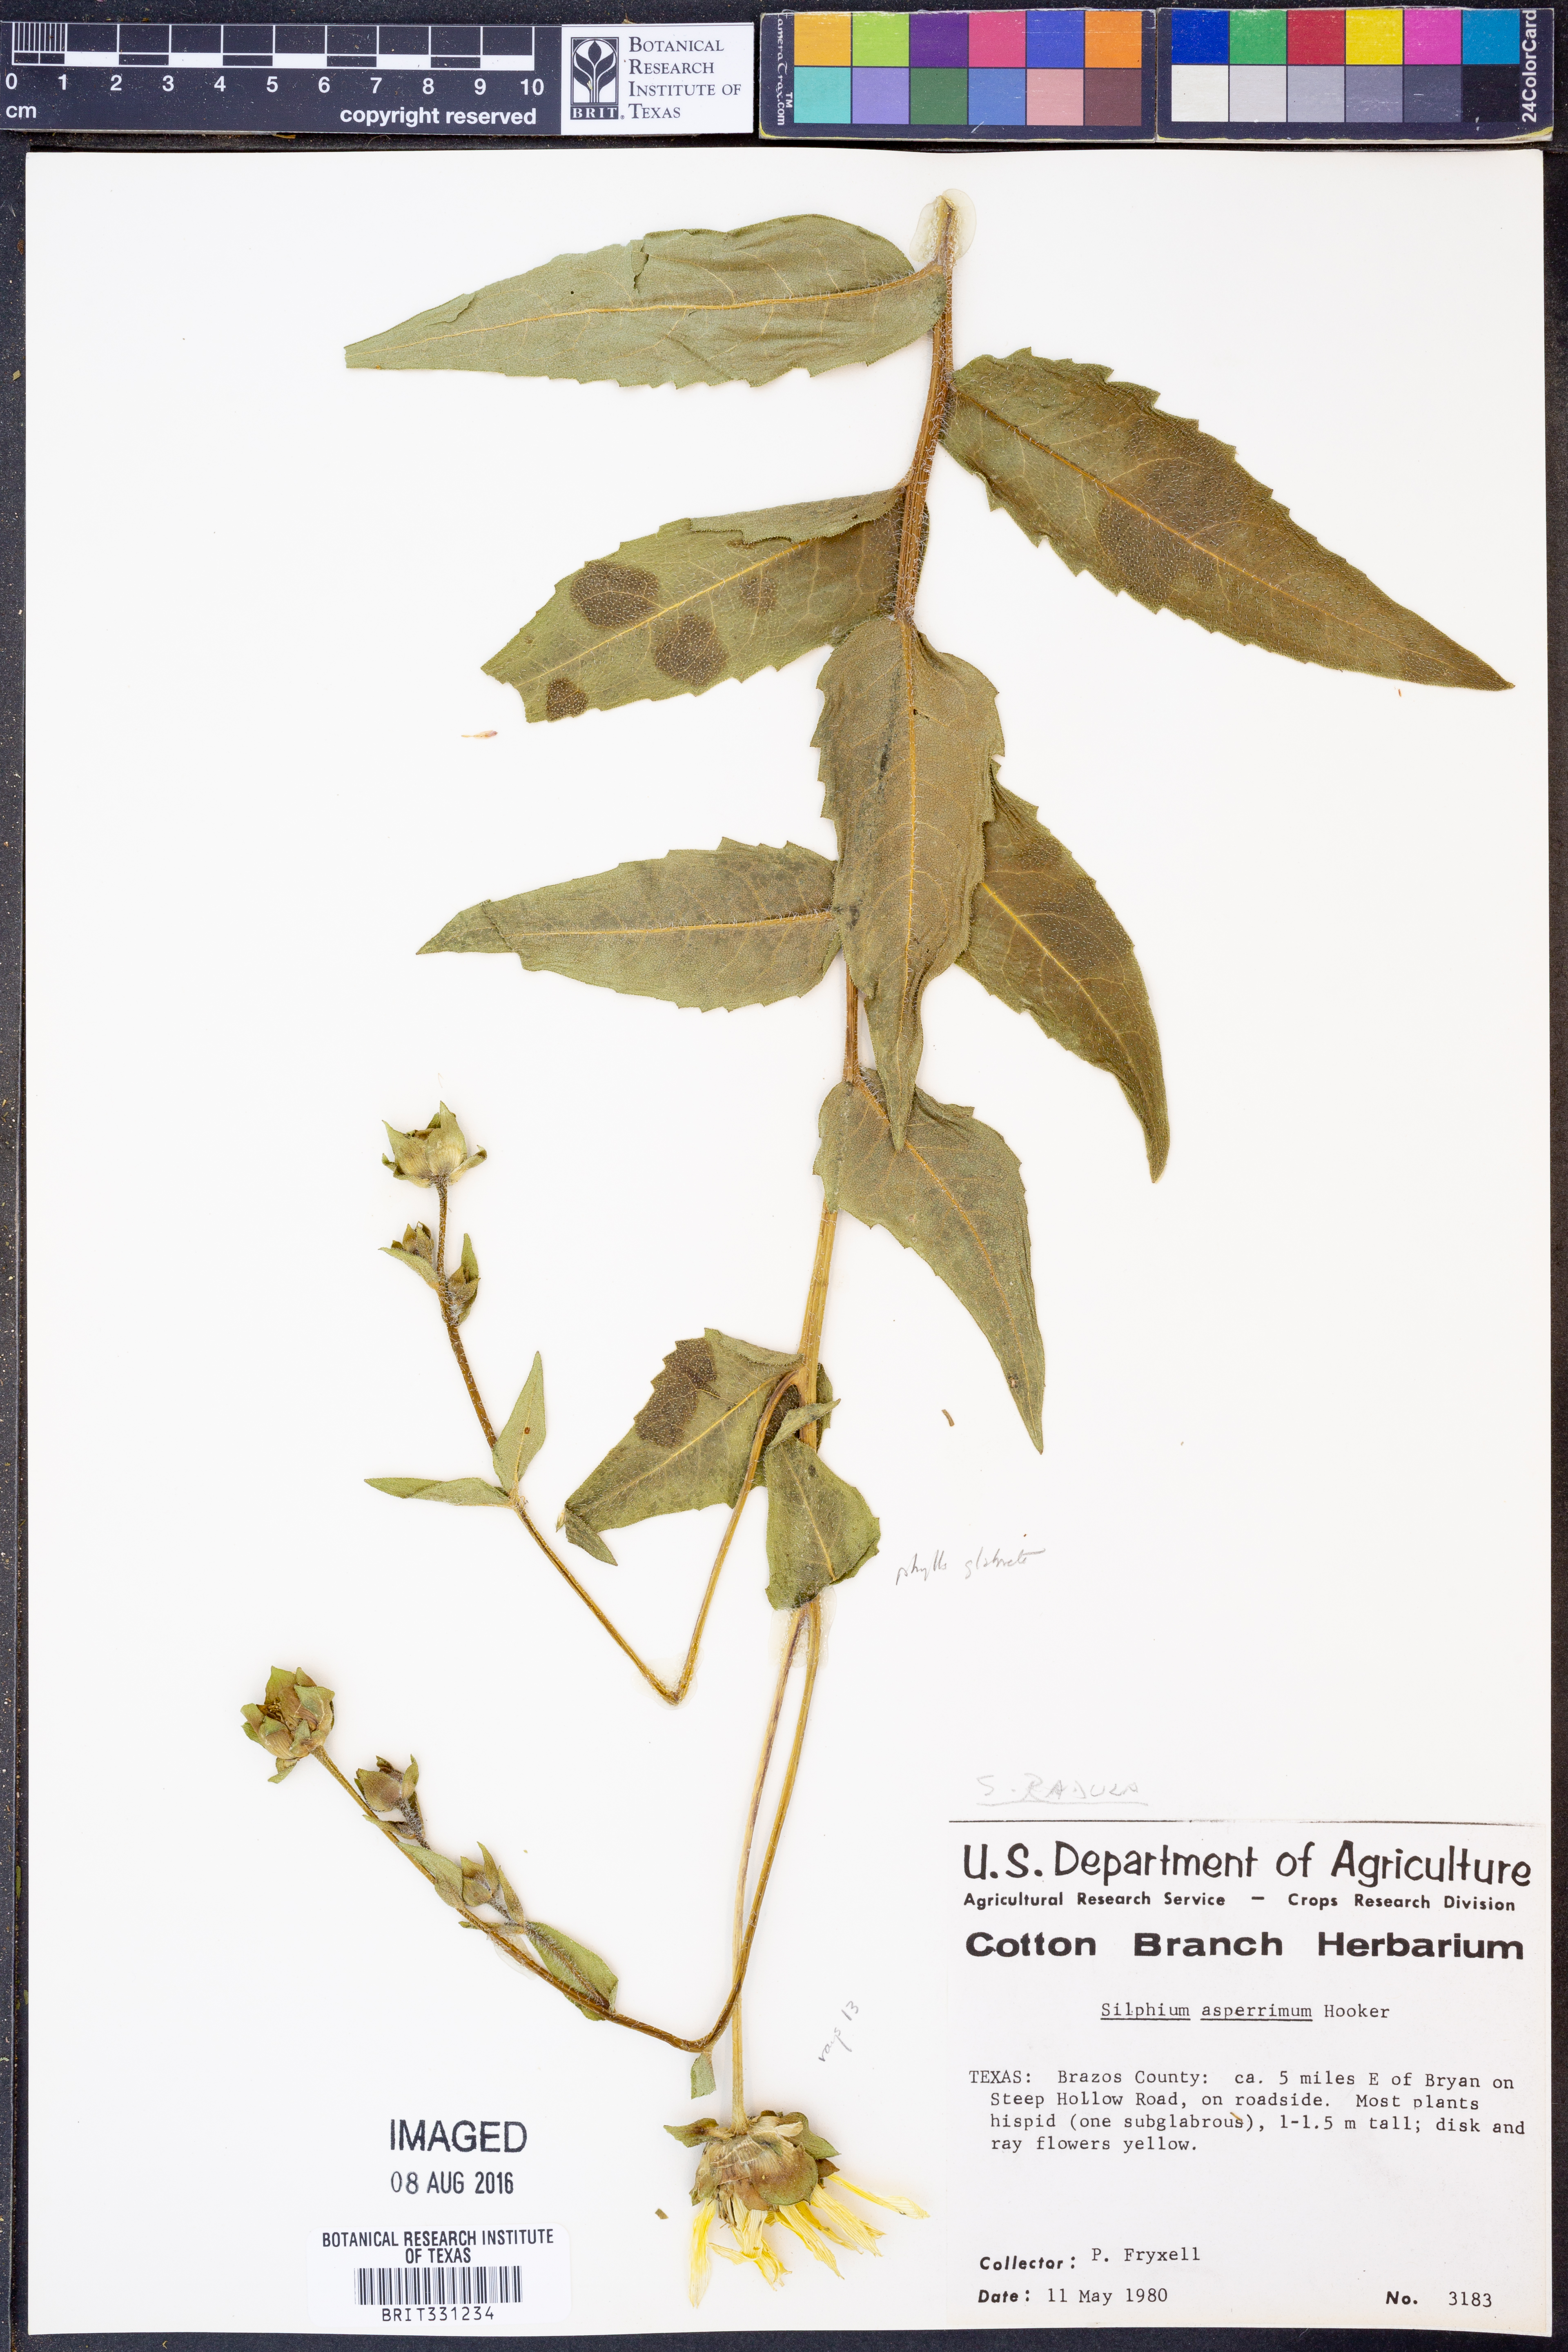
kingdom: Plantae
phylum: Tracheophyta
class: Magnoliopsida
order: Asterales
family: Asteraceae
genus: Silphium
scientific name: Silphium radula
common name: Roughleaf rosinweed
